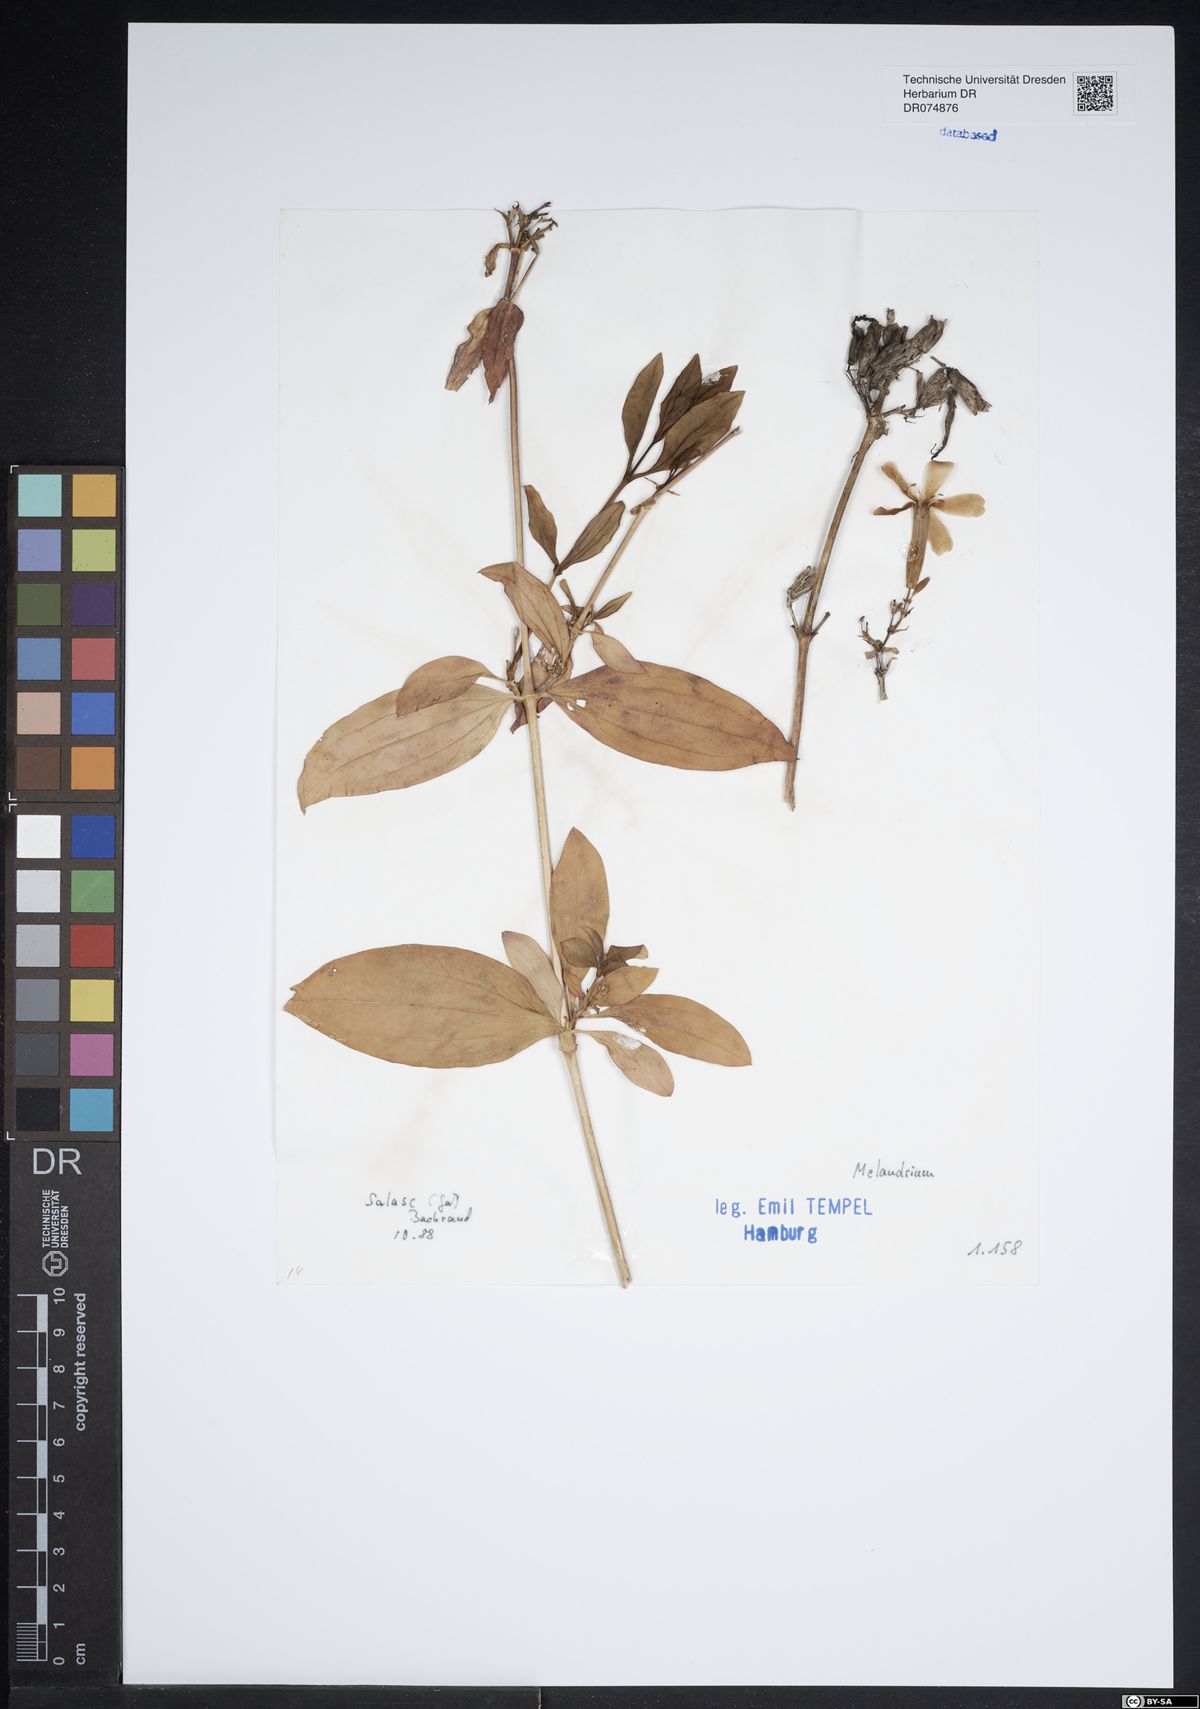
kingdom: Plantae
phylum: Tracheophyta
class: Magnoliopsida
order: Caryophyllales
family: Caryophyllaceae
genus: Silene
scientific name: Silene
